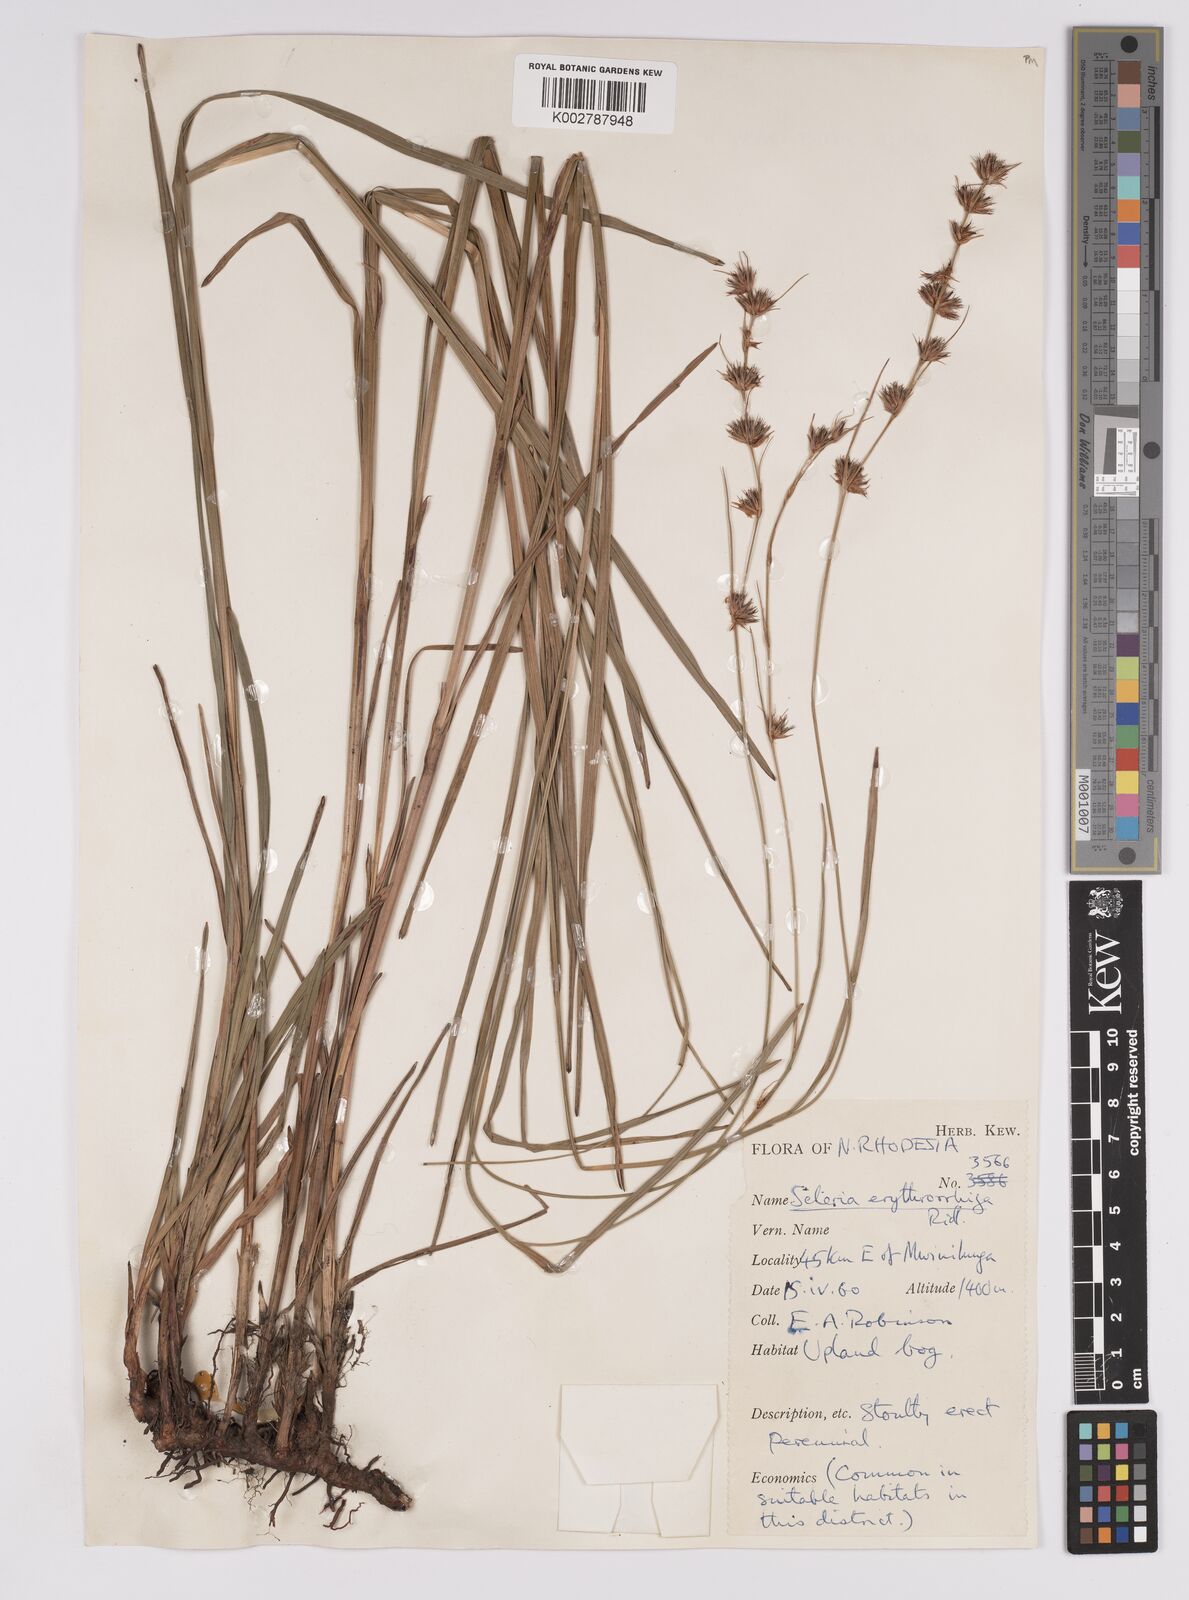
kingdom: Plantae
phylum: Tracheophyta
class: Liliopsida
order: Poales
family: Cyperaceae
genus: Scleria
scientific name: Scleria erythrorrhiza
